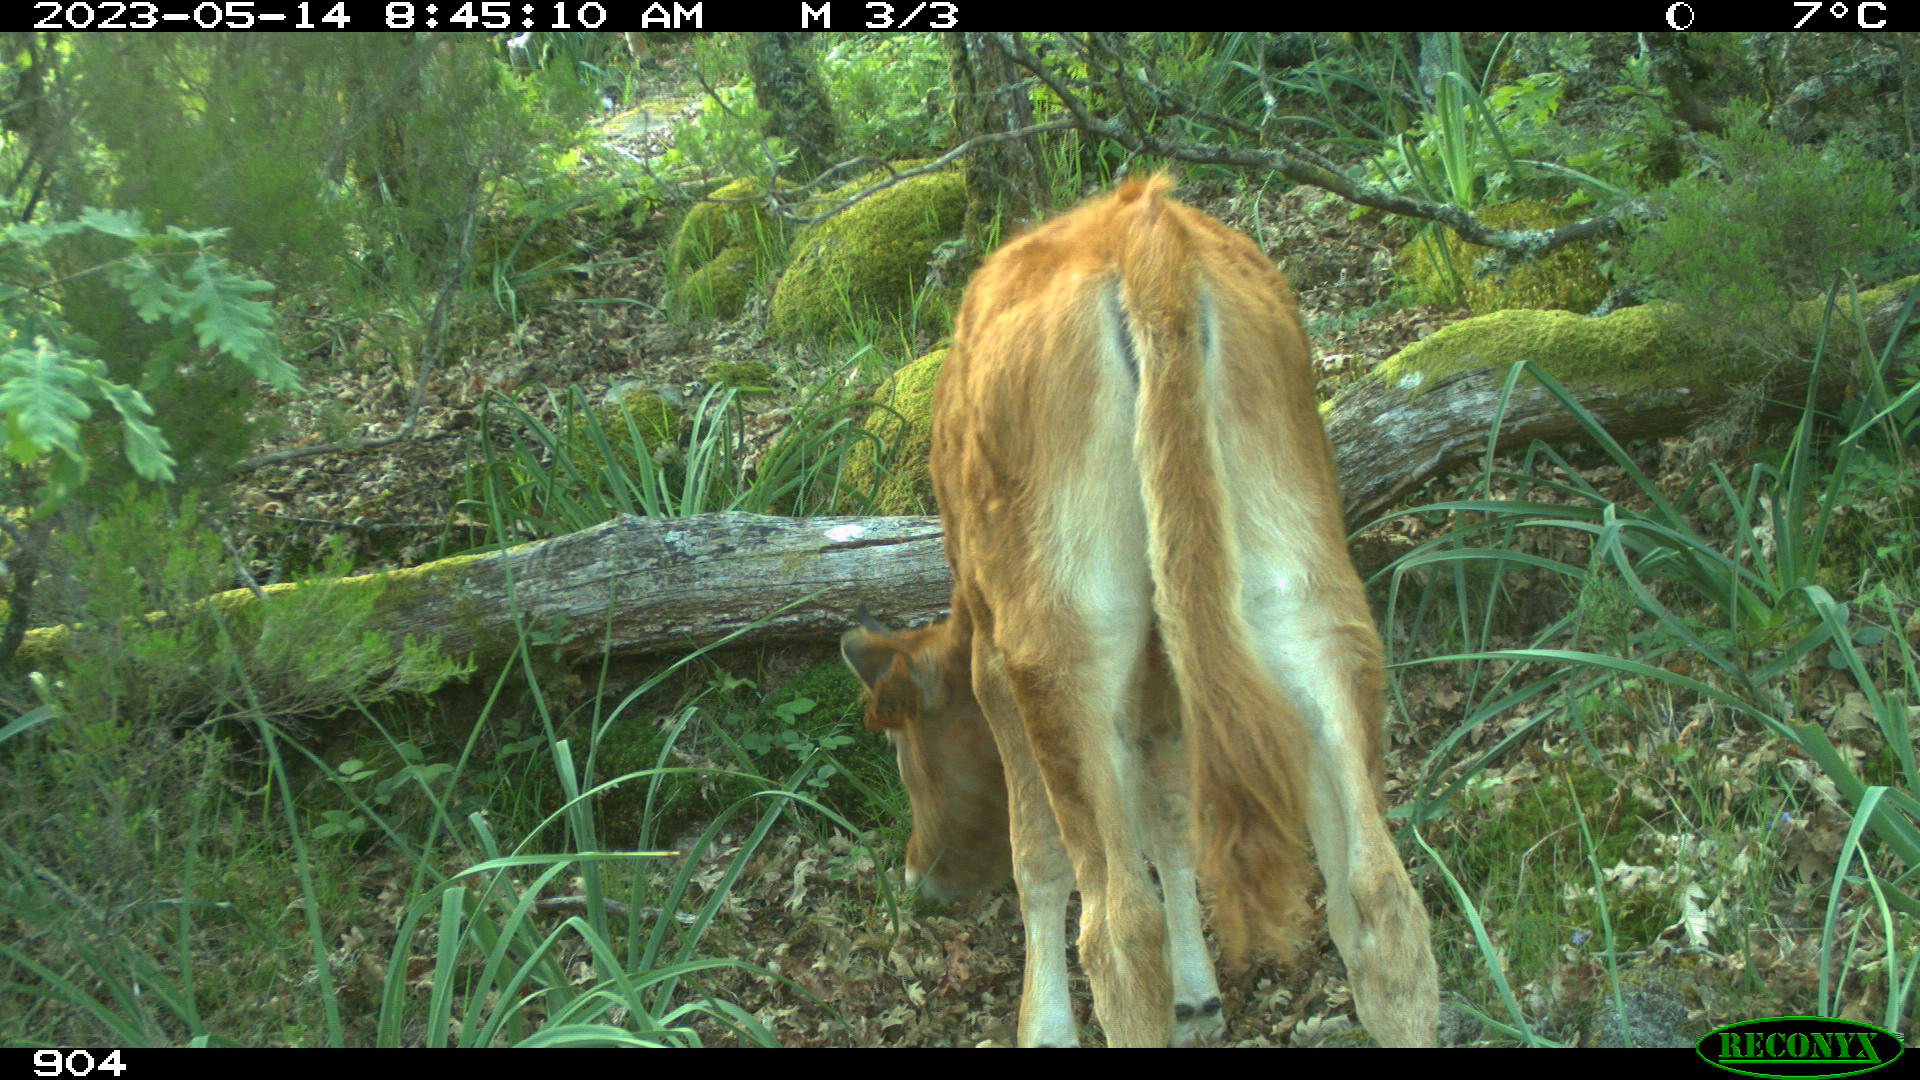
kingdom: Animalia
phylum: Chordata
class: Mammalia
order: Artiodactyla
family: Bovidae
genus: Bos
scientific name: Bos taurus
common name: Domesticated cattle
